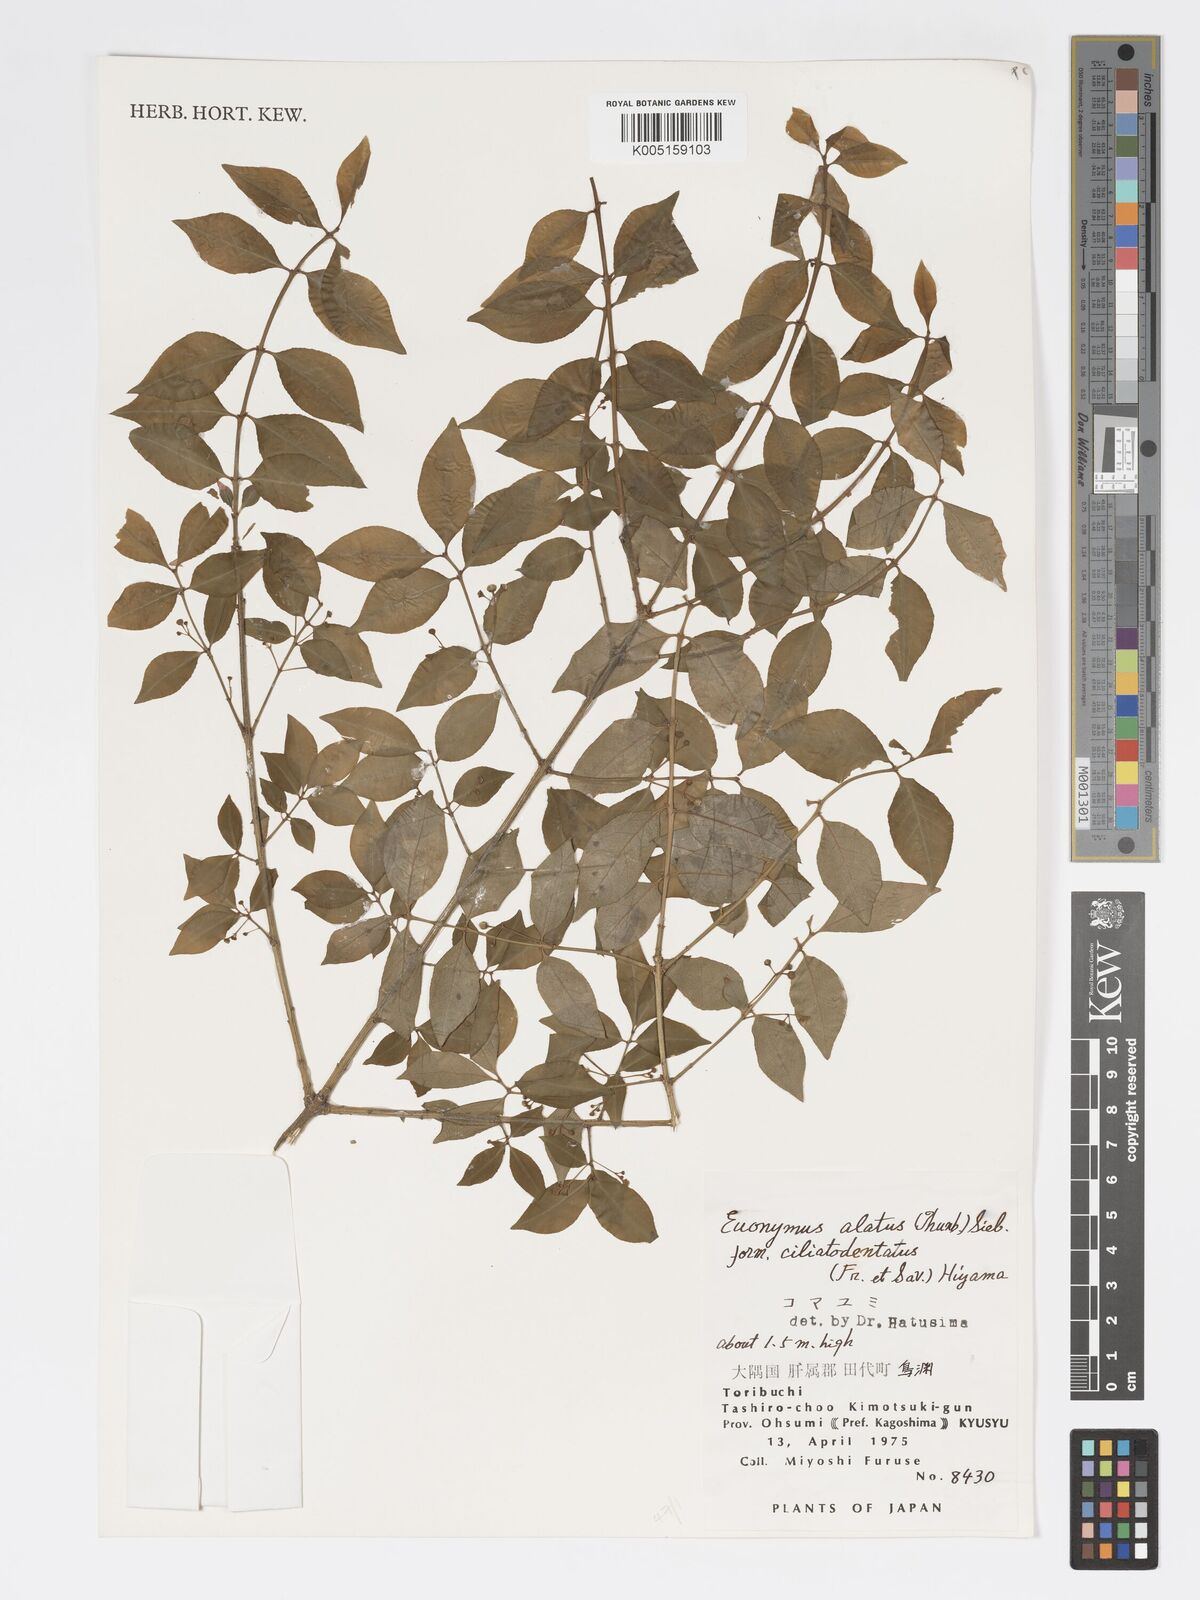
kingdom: Plantae
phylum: Tracheophyta
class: Magnoliopsida
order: Celastrales
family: Celastraceae
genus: Euonymus
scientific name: Euonymus
